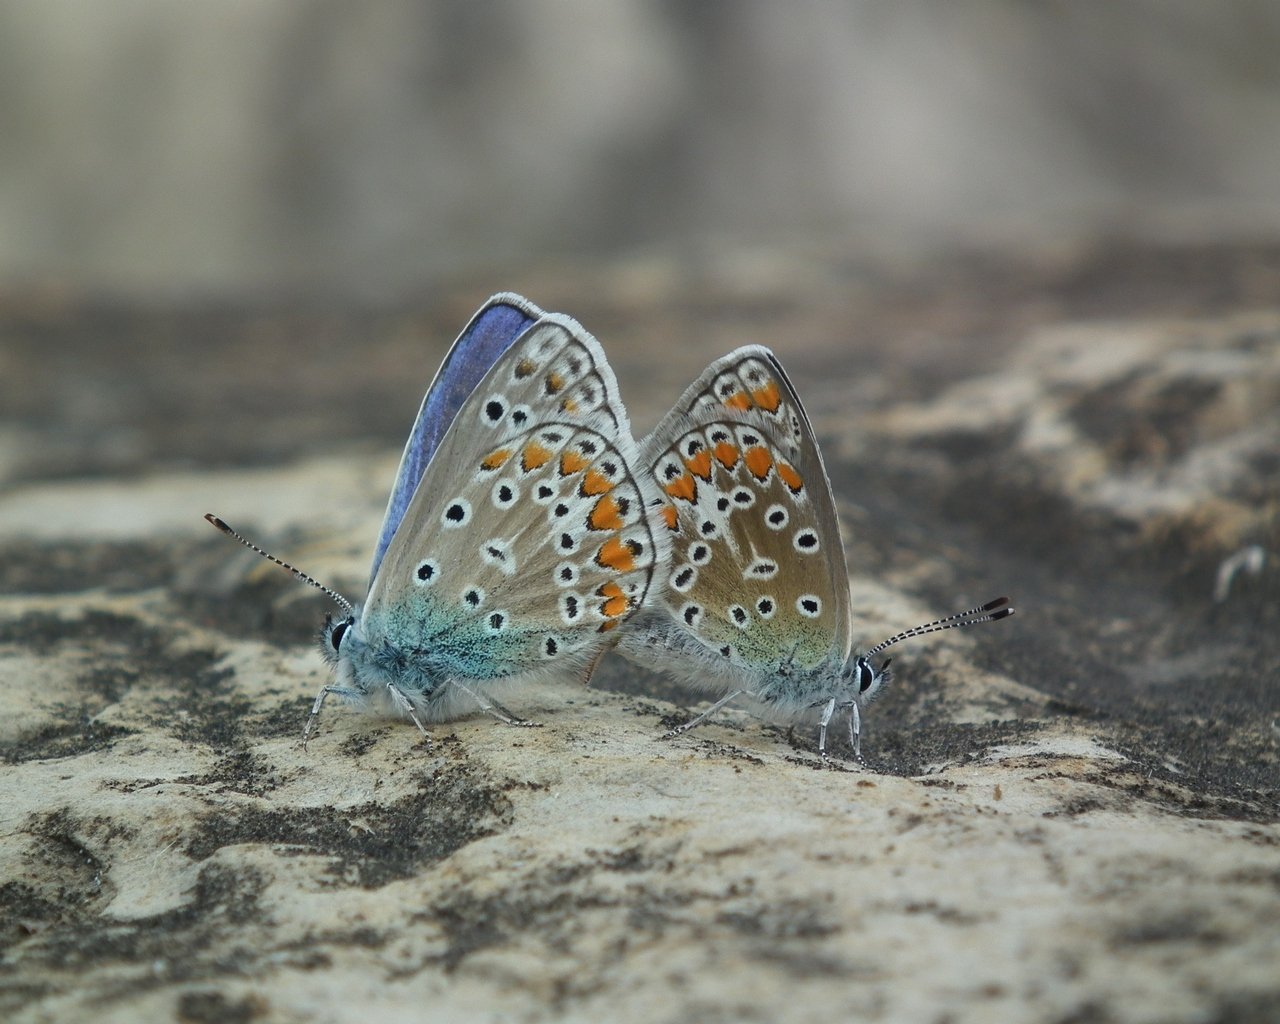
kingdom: Animalia
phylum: Arthropoda
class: Insecta
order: Lepidoptera
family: Lycaenidae
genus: Polyommatus
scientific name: Polyommatus icarus
